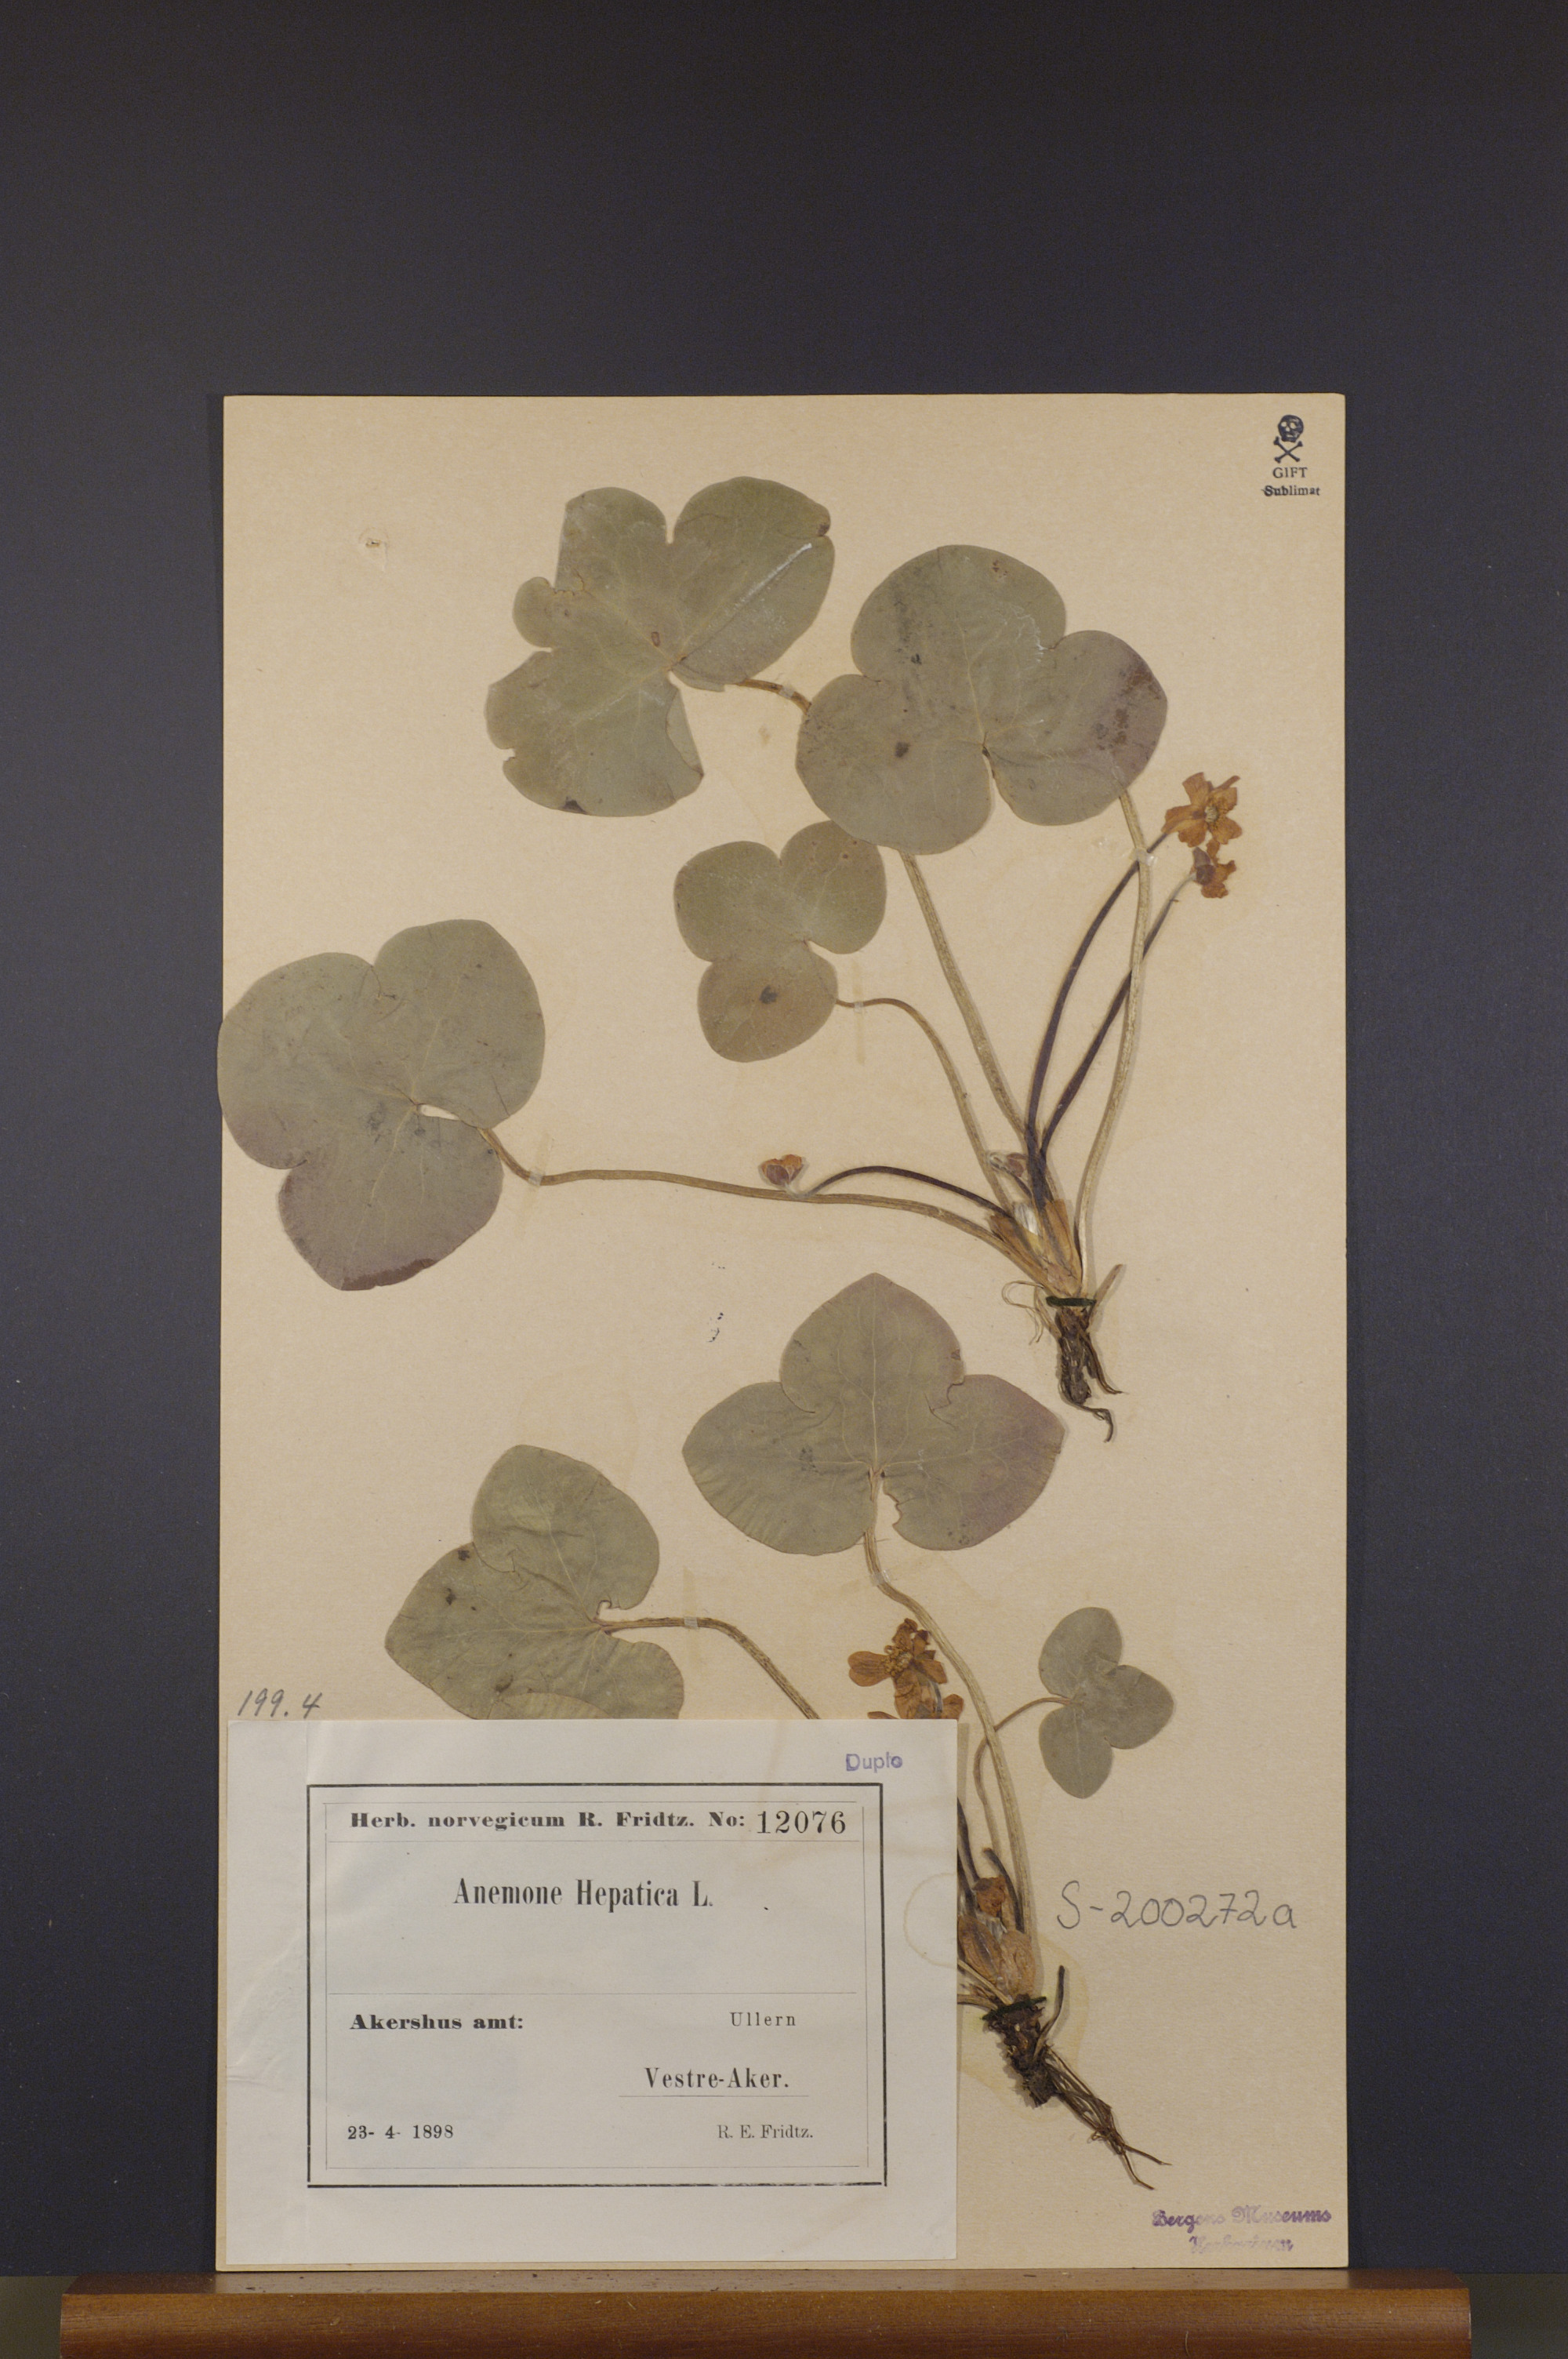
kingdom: Plantae
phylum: Tracheophyta
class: Magnoliopsida
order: Ranunculales
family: Ranunculaceae
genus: Hepatica
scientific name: Hepatica nobilis
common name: Liverleaf
